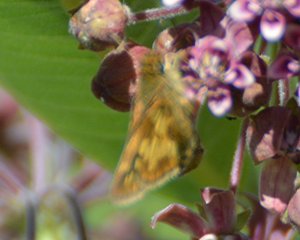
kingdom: Animalia
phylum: Arthropoda
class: Insecta
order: Lepidoptera
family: Hesperiidae
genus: Polites
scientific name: Polites coras
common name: Peck's Skipper
